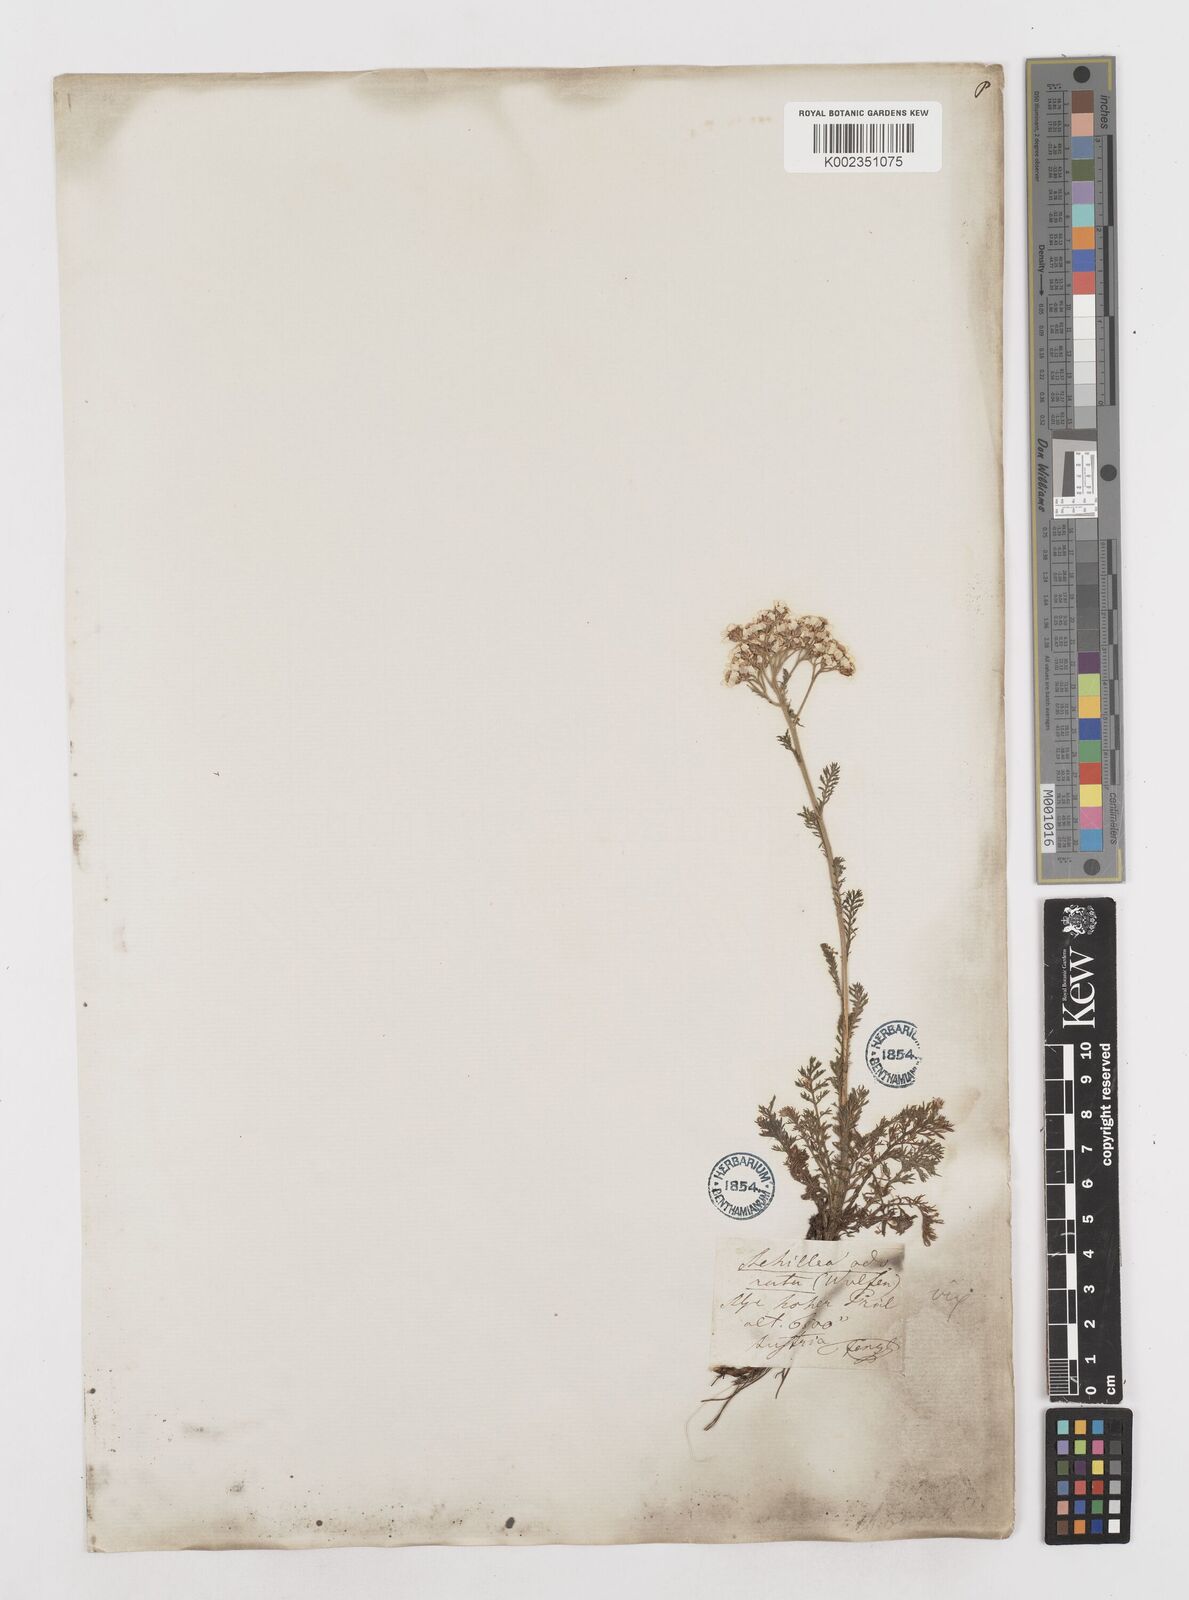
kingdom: Plantae
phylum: Tracheophyta
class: Magnoliopsida
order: Asterales
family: Asteraceae
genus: Achillea
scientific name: Achillea millefolium
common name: Yarrow
